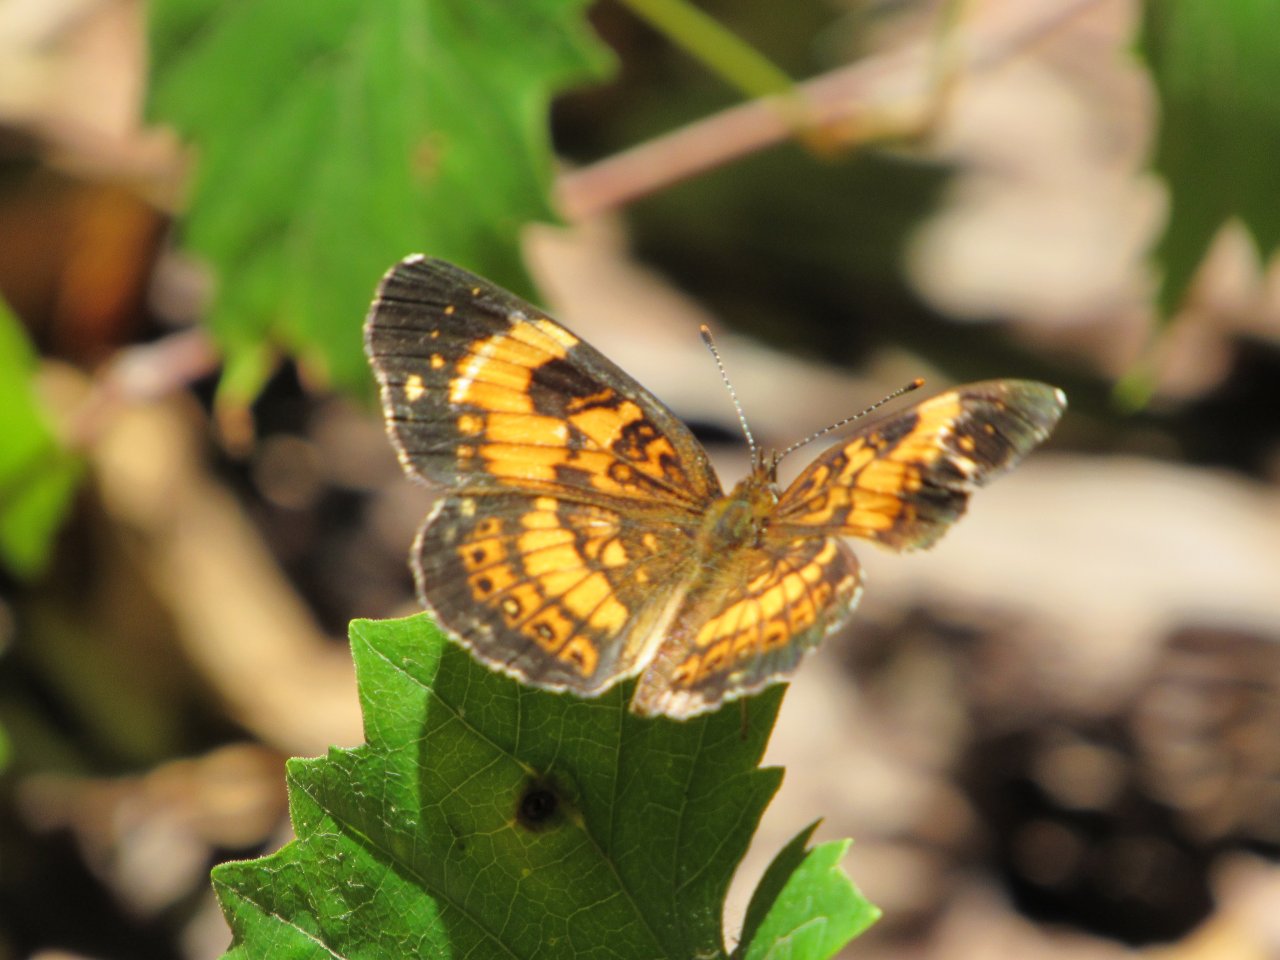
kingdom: Animalia
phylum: Arthropoda
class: Insecta
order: Lepidoptera
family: Nymphalidae
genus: Chlosyne
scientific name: Chlosyne nycteis
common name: Silvery Checkerspot
